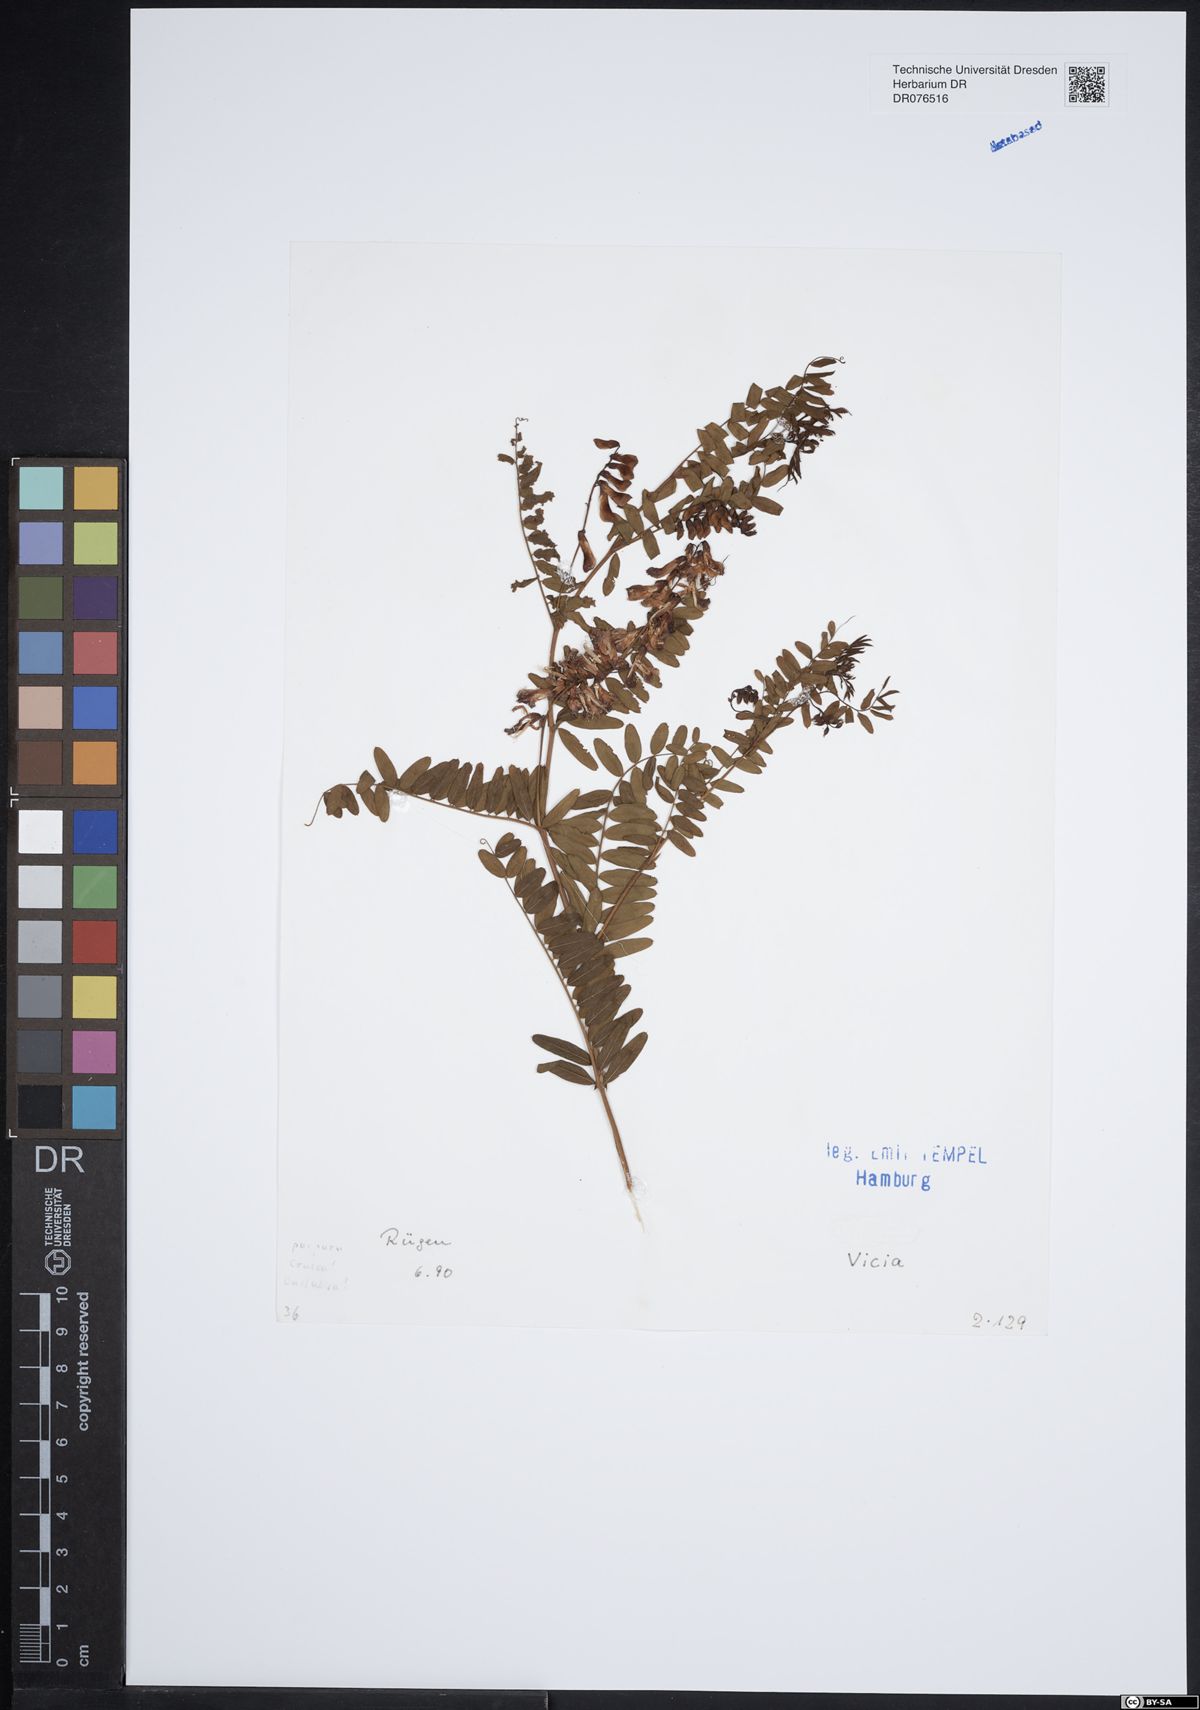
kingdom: Plantae
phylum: Tracheophyta
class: Magnoliopsida
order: Fabales
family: Fabaceae
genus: Vicia
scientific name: Vicia
